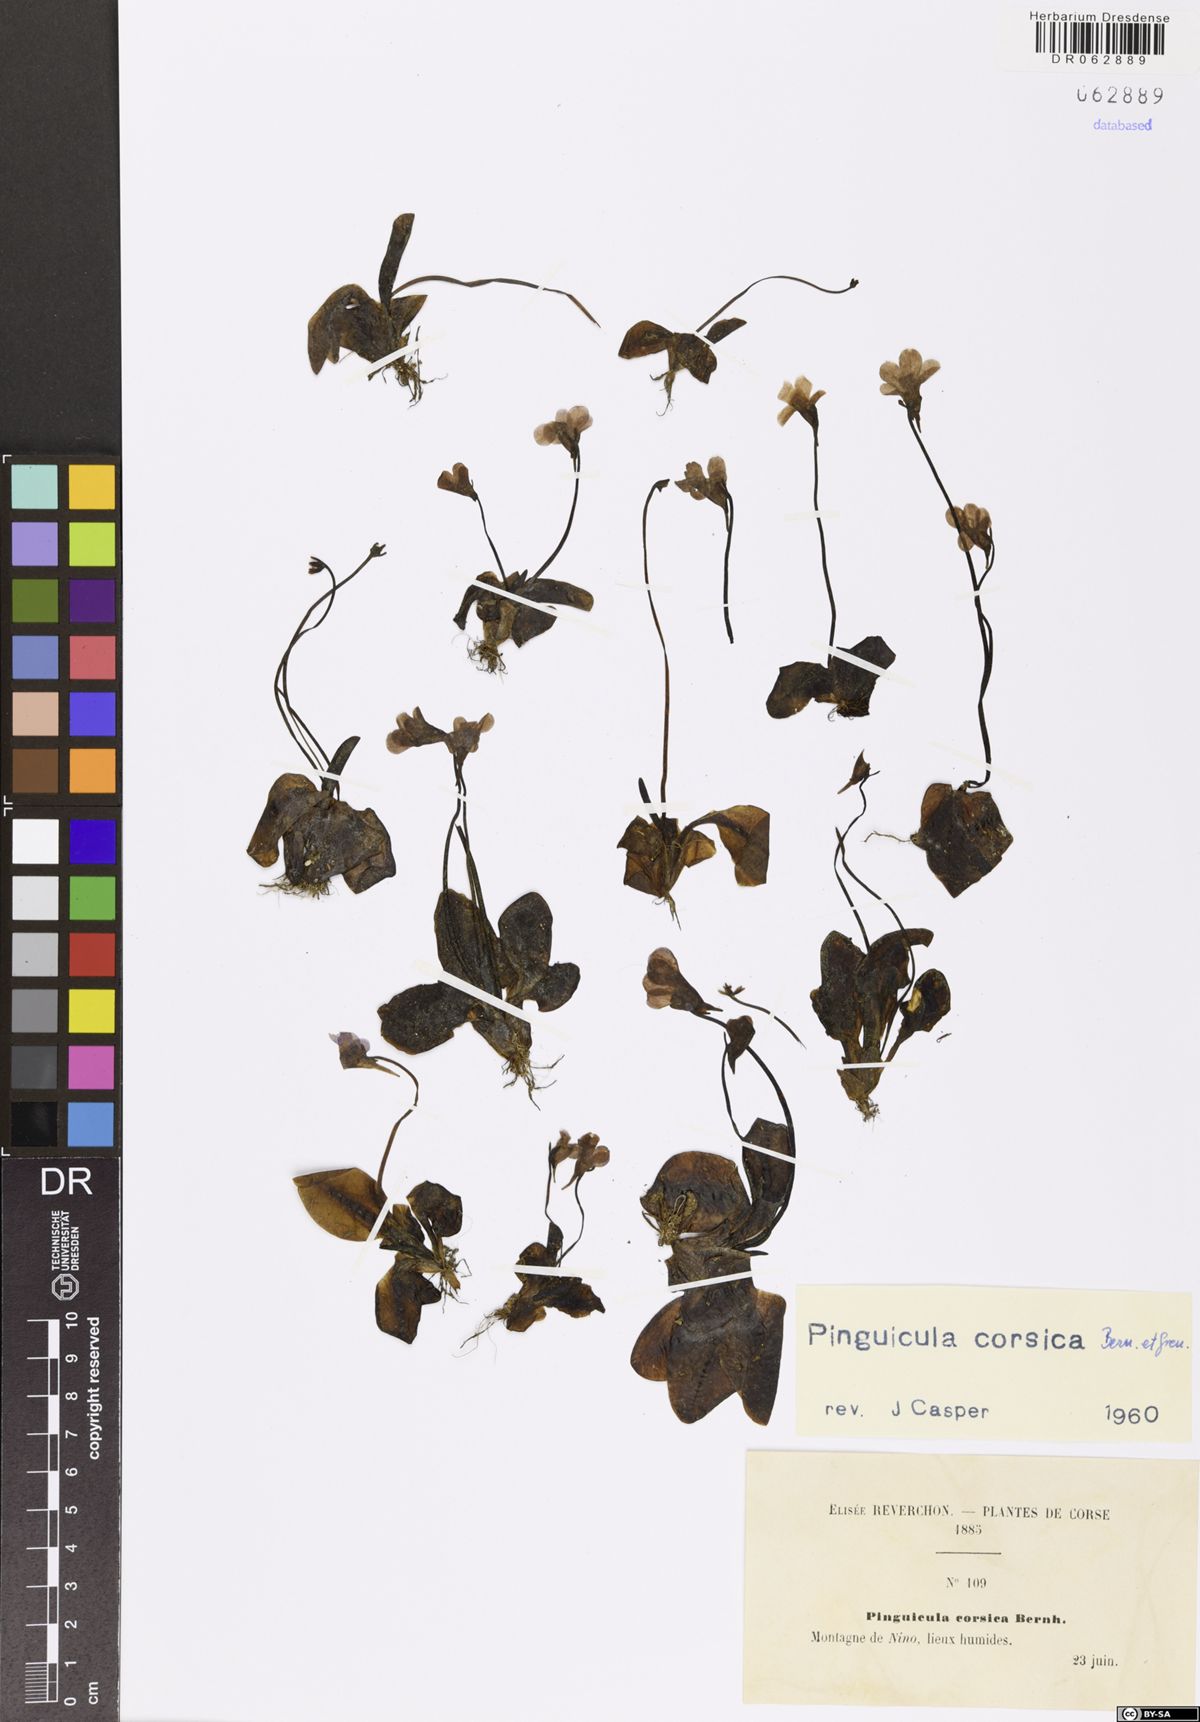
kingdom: Plantae
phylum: Tracheophyta
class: Magnoliopsida
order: Lamiales
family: Lentibulariaceae
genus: Pinguicula
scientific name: Pinguicula corsica
